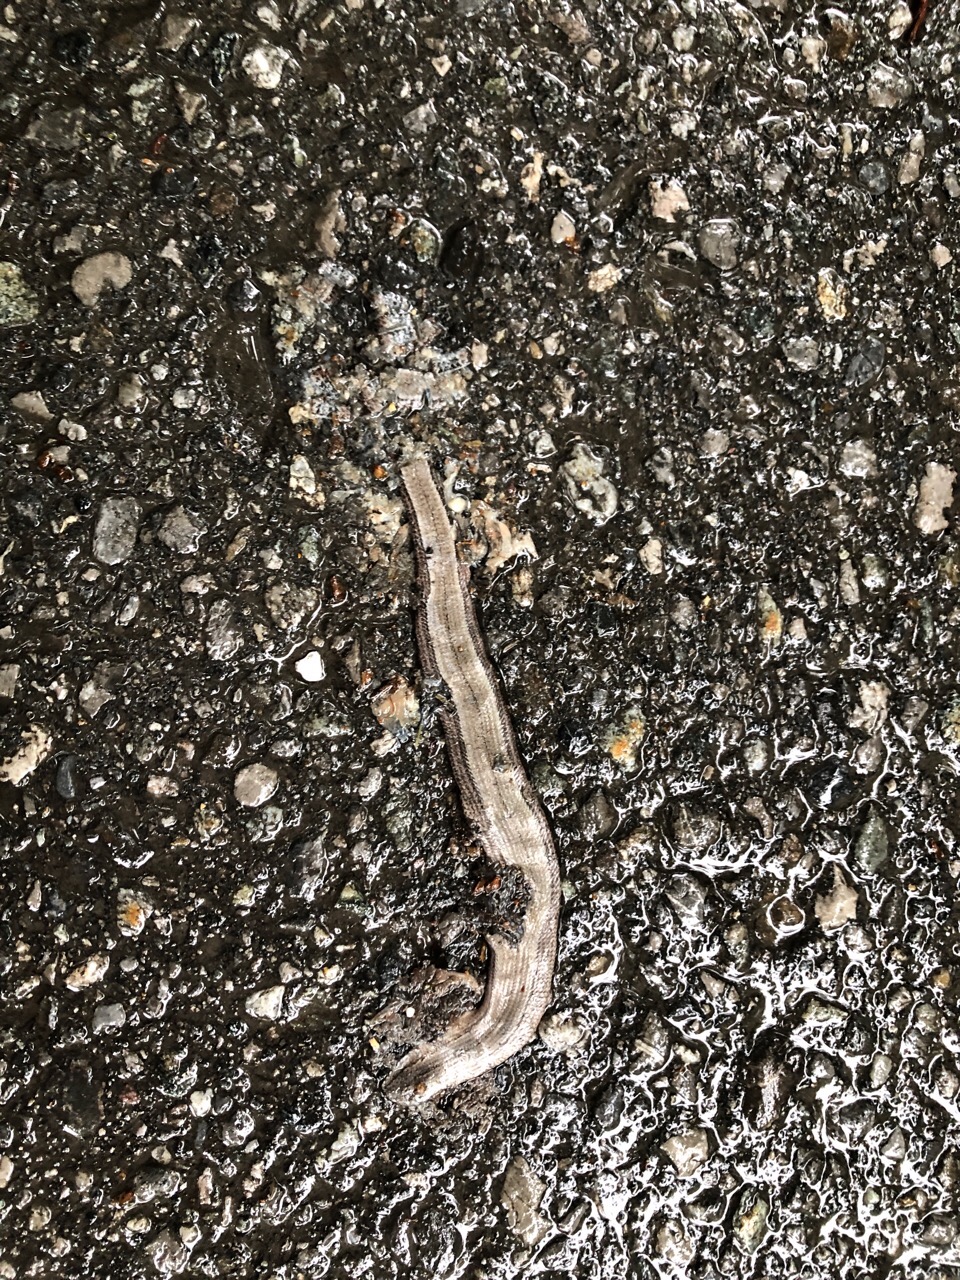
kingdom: Animalia
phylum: Chordata
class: Squamata
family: Anguidae
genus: Anguis
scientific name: Anguis fragilis
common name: Slow worm
